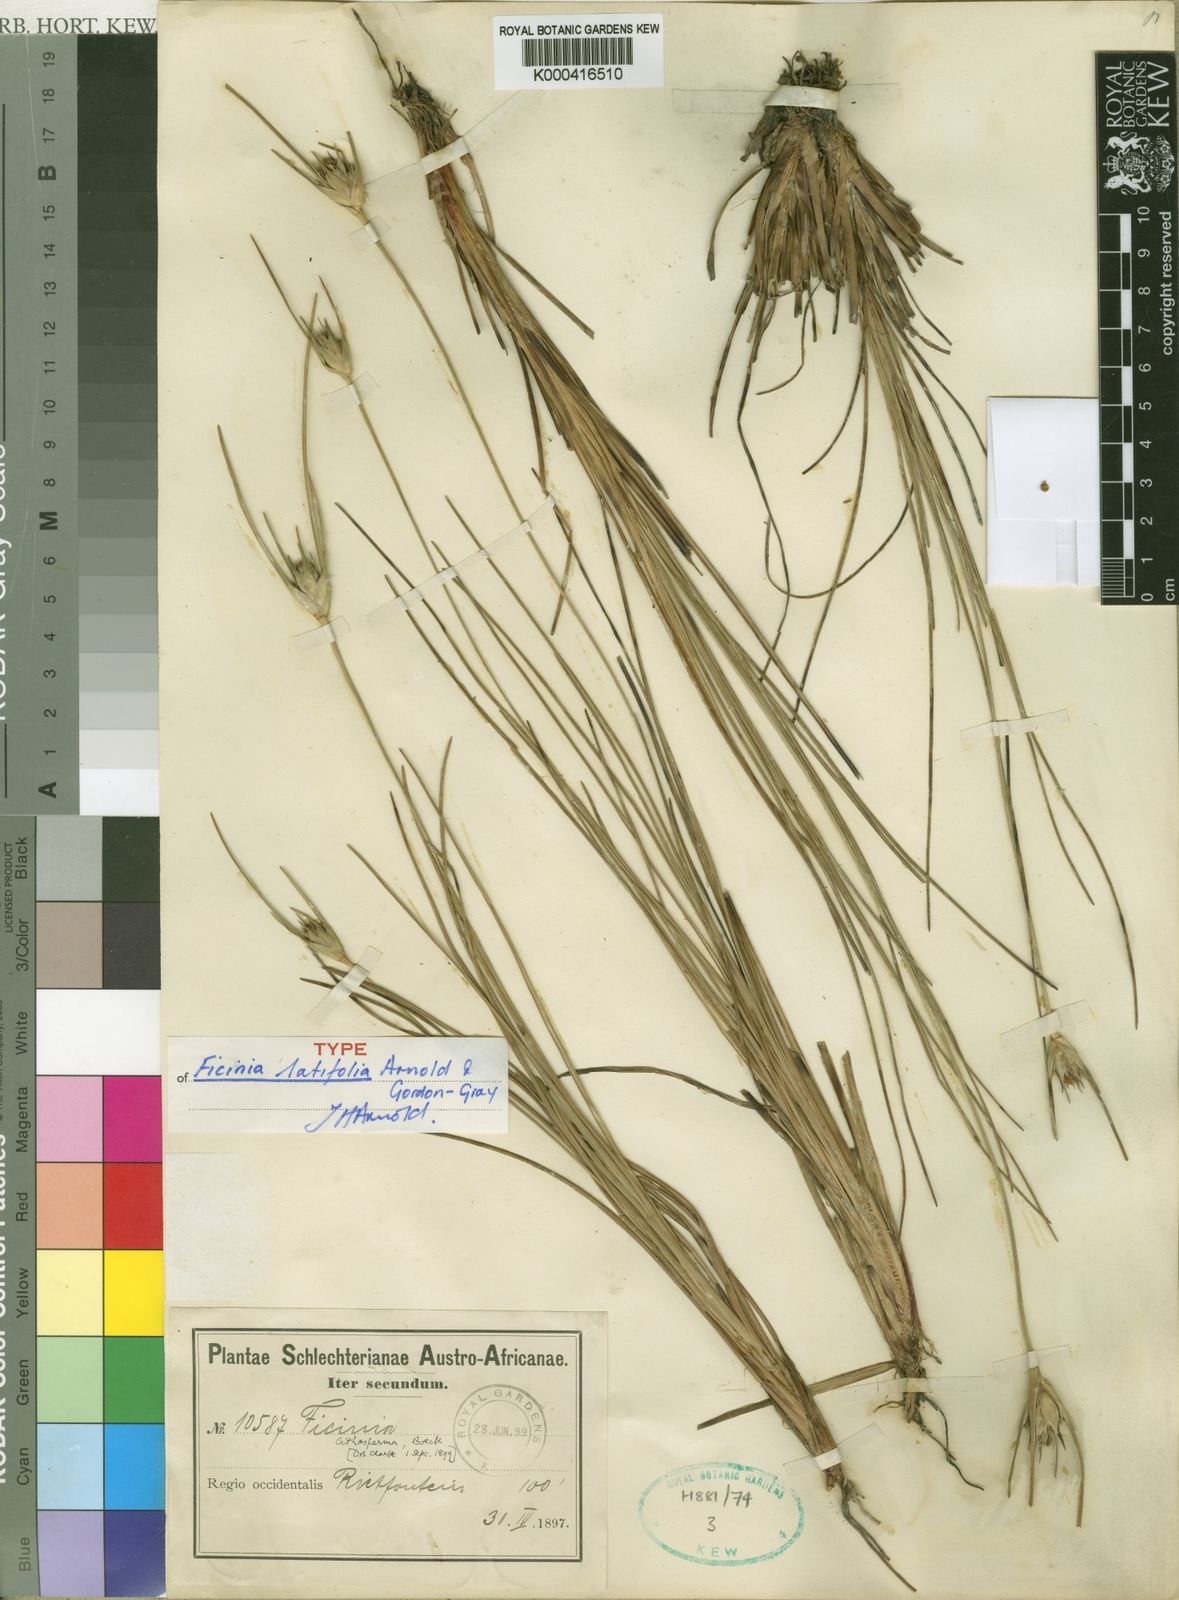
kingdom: Plantae
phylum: Tracheophyta
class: Liliopsida
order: Poales
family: Cyperaceae
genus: Ficinia
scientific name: Ficinia latifolia
